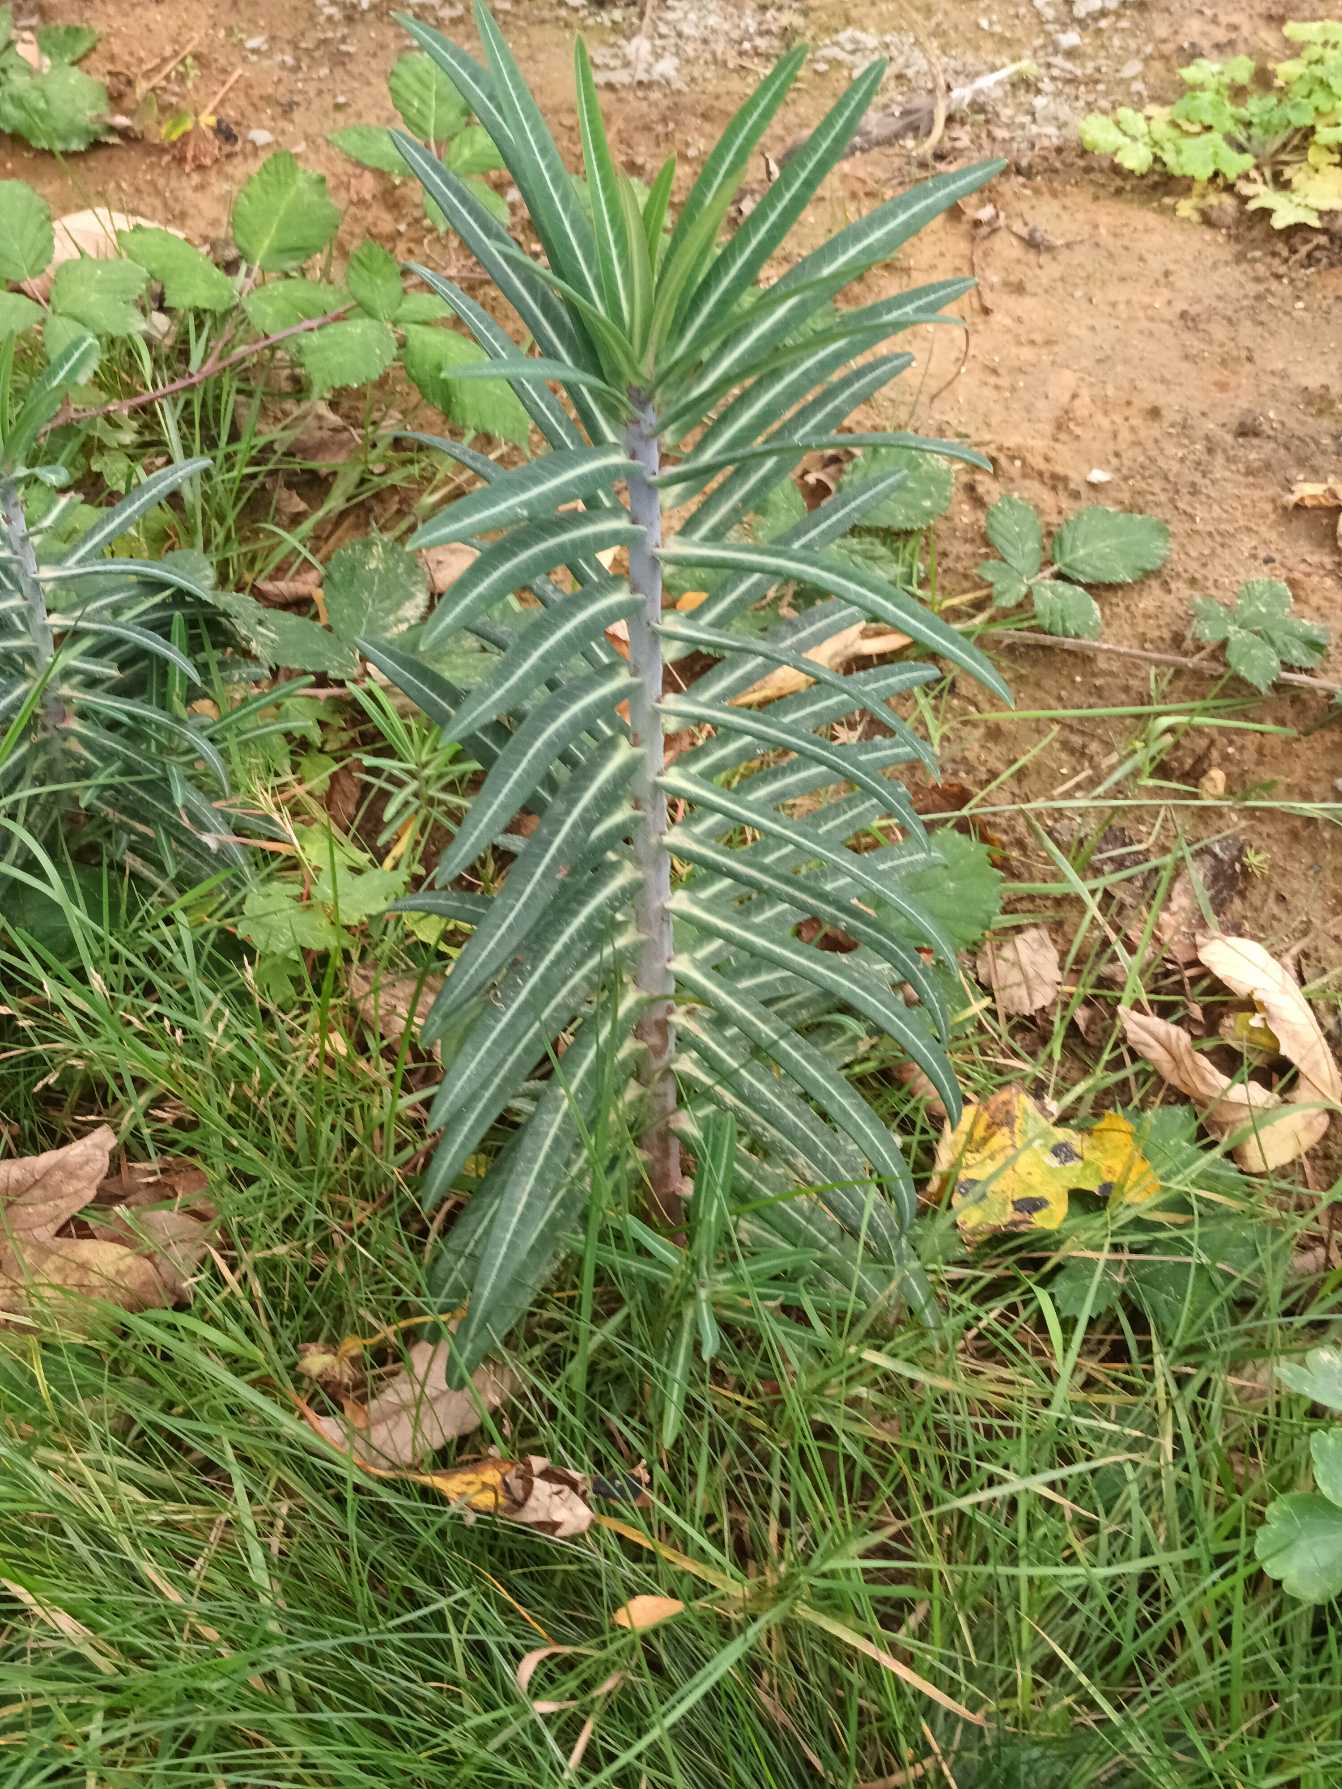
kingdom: Plantae
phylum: Tracheophyta
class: Magnoliopsida
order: Malpighiales
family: Euphorbiaceae
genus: Euphorbia
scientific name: Euphorbia lathyris
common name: Kors-vortemælk
